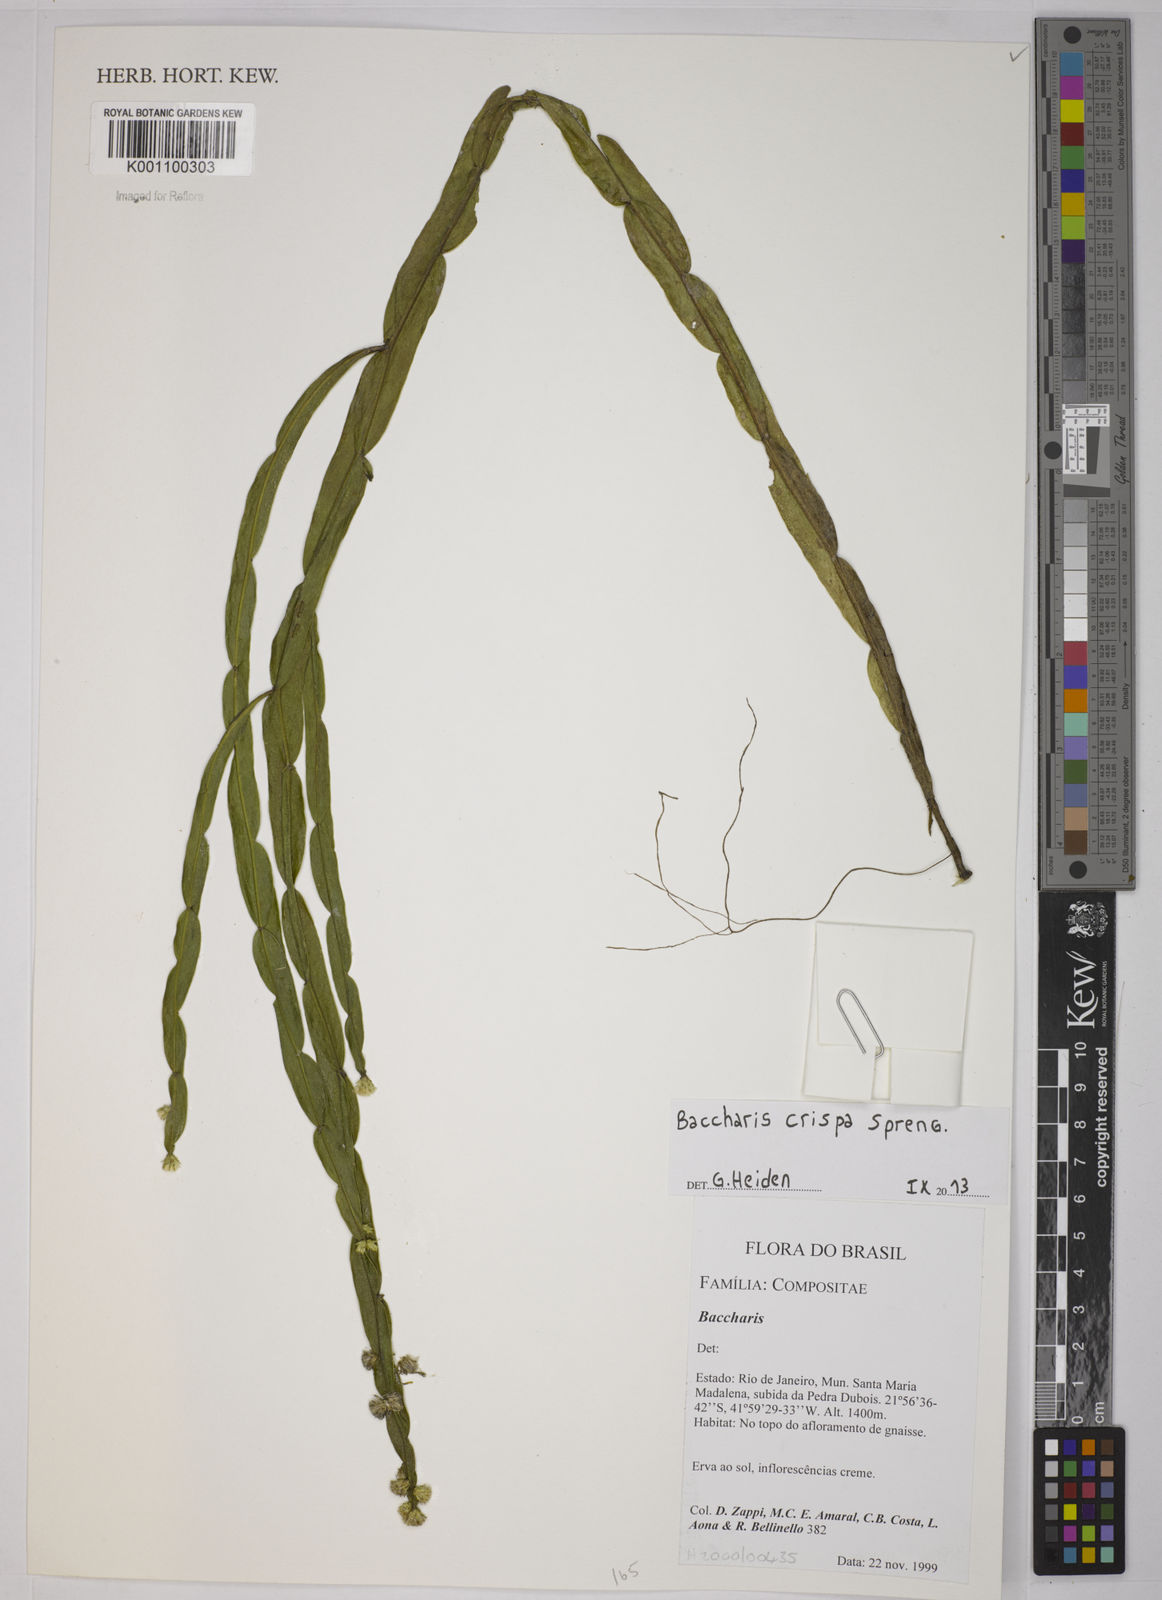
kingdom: Plantae
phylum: Tracheophyta
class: Magnoliopsida
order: Asterales
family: Asteraceae
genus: Baccharis
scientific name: Baccharis trimera
